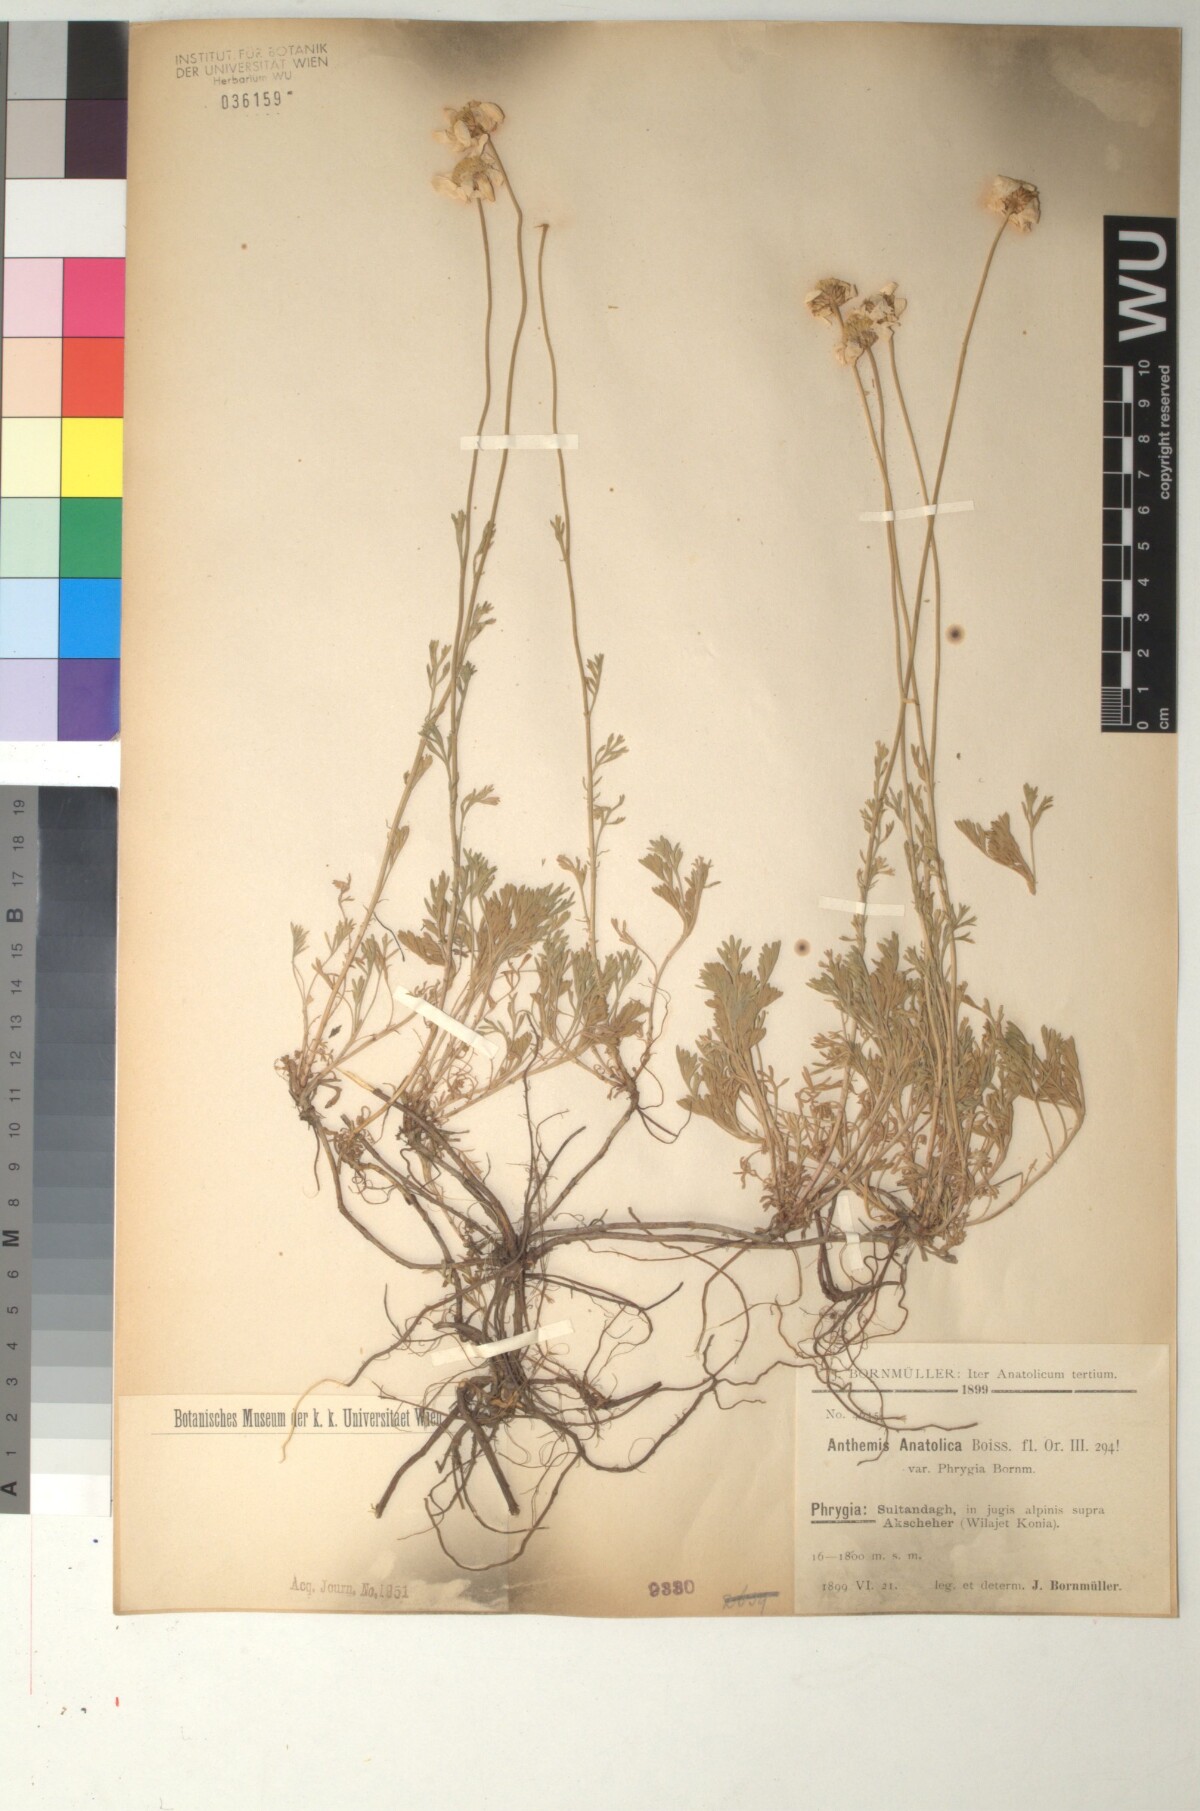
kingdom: Plantae
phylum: Tracheophyta
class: Magnoliopsida
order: Asterales
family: Asteraceae
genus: Anthemis
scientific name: Anthemis cretica
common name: Mountain dog-daisy
